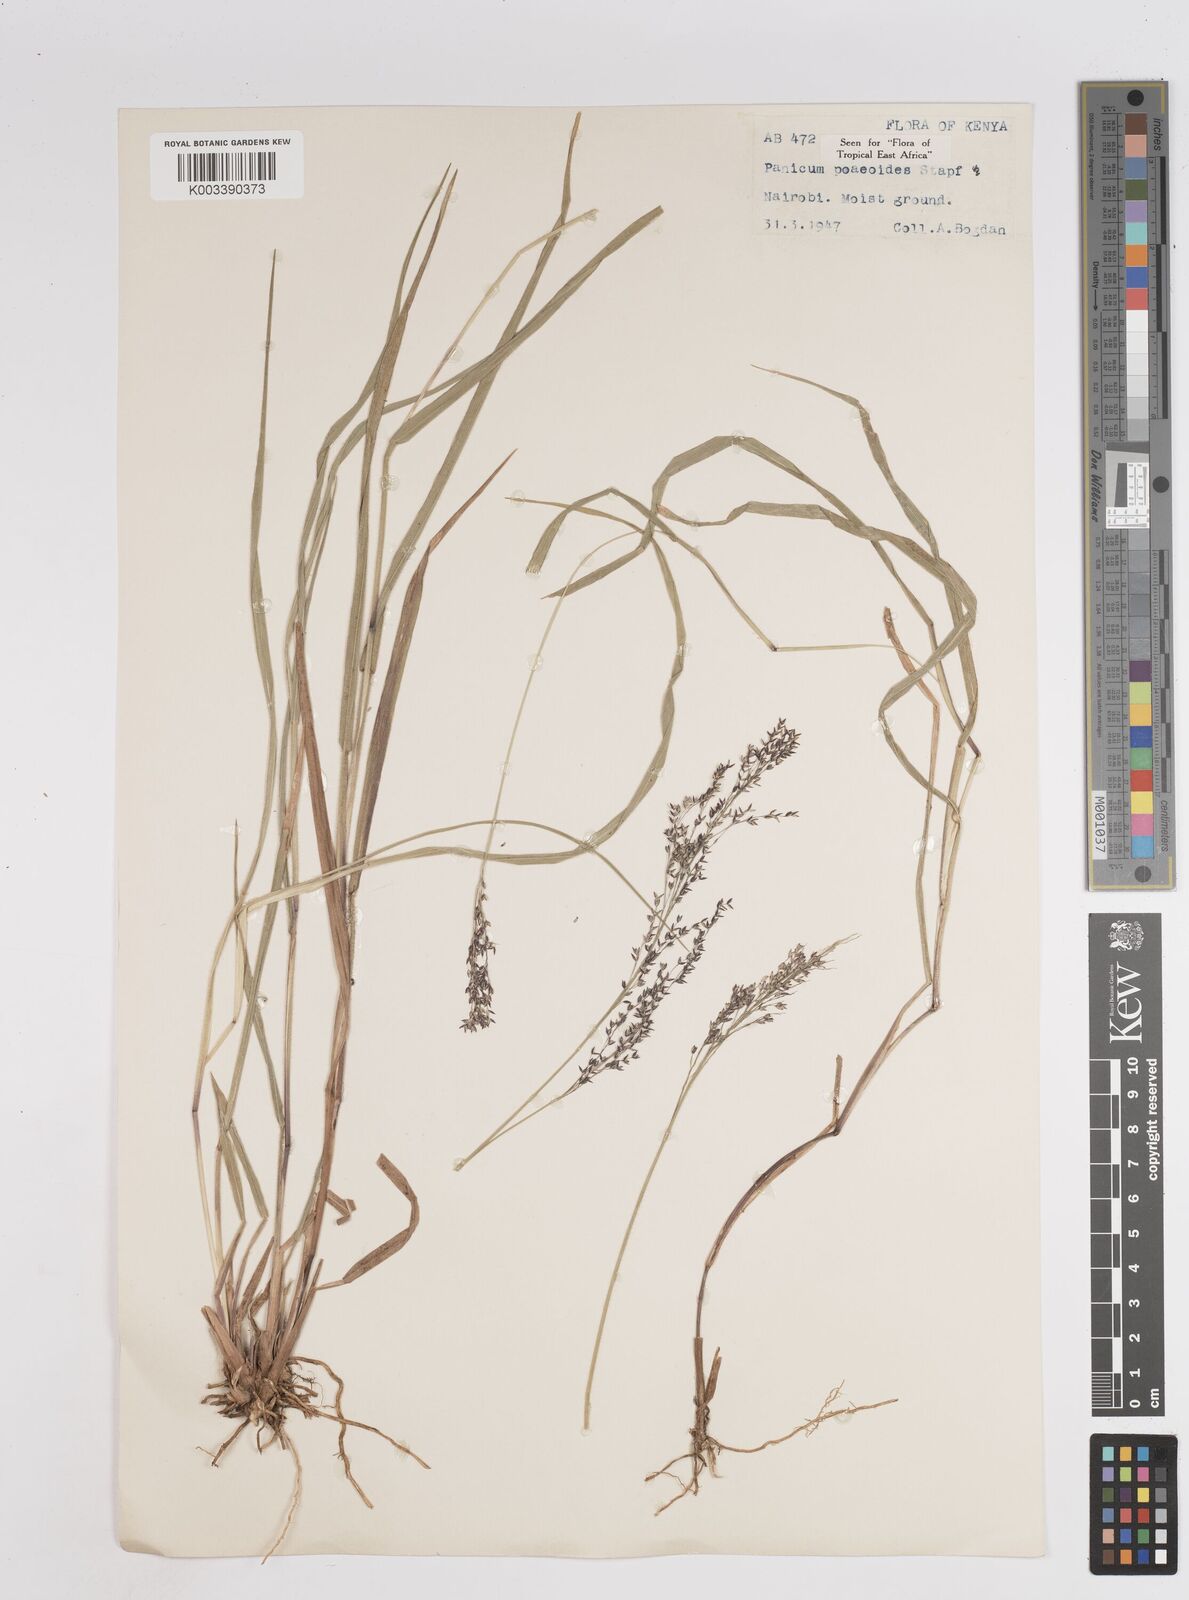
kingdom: Plantae
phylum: Tracheophyta
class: Liliopsida
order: Poales
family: Poaceae
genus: Panicum
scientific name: Panicum
